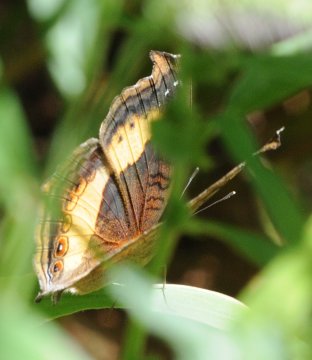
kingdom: Animalia
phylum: Arthropoda
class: Insecta
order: Lepidoptera
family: Nymphalidae
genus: Junonia
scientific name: Junonia terea
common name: Soldier Pansy
